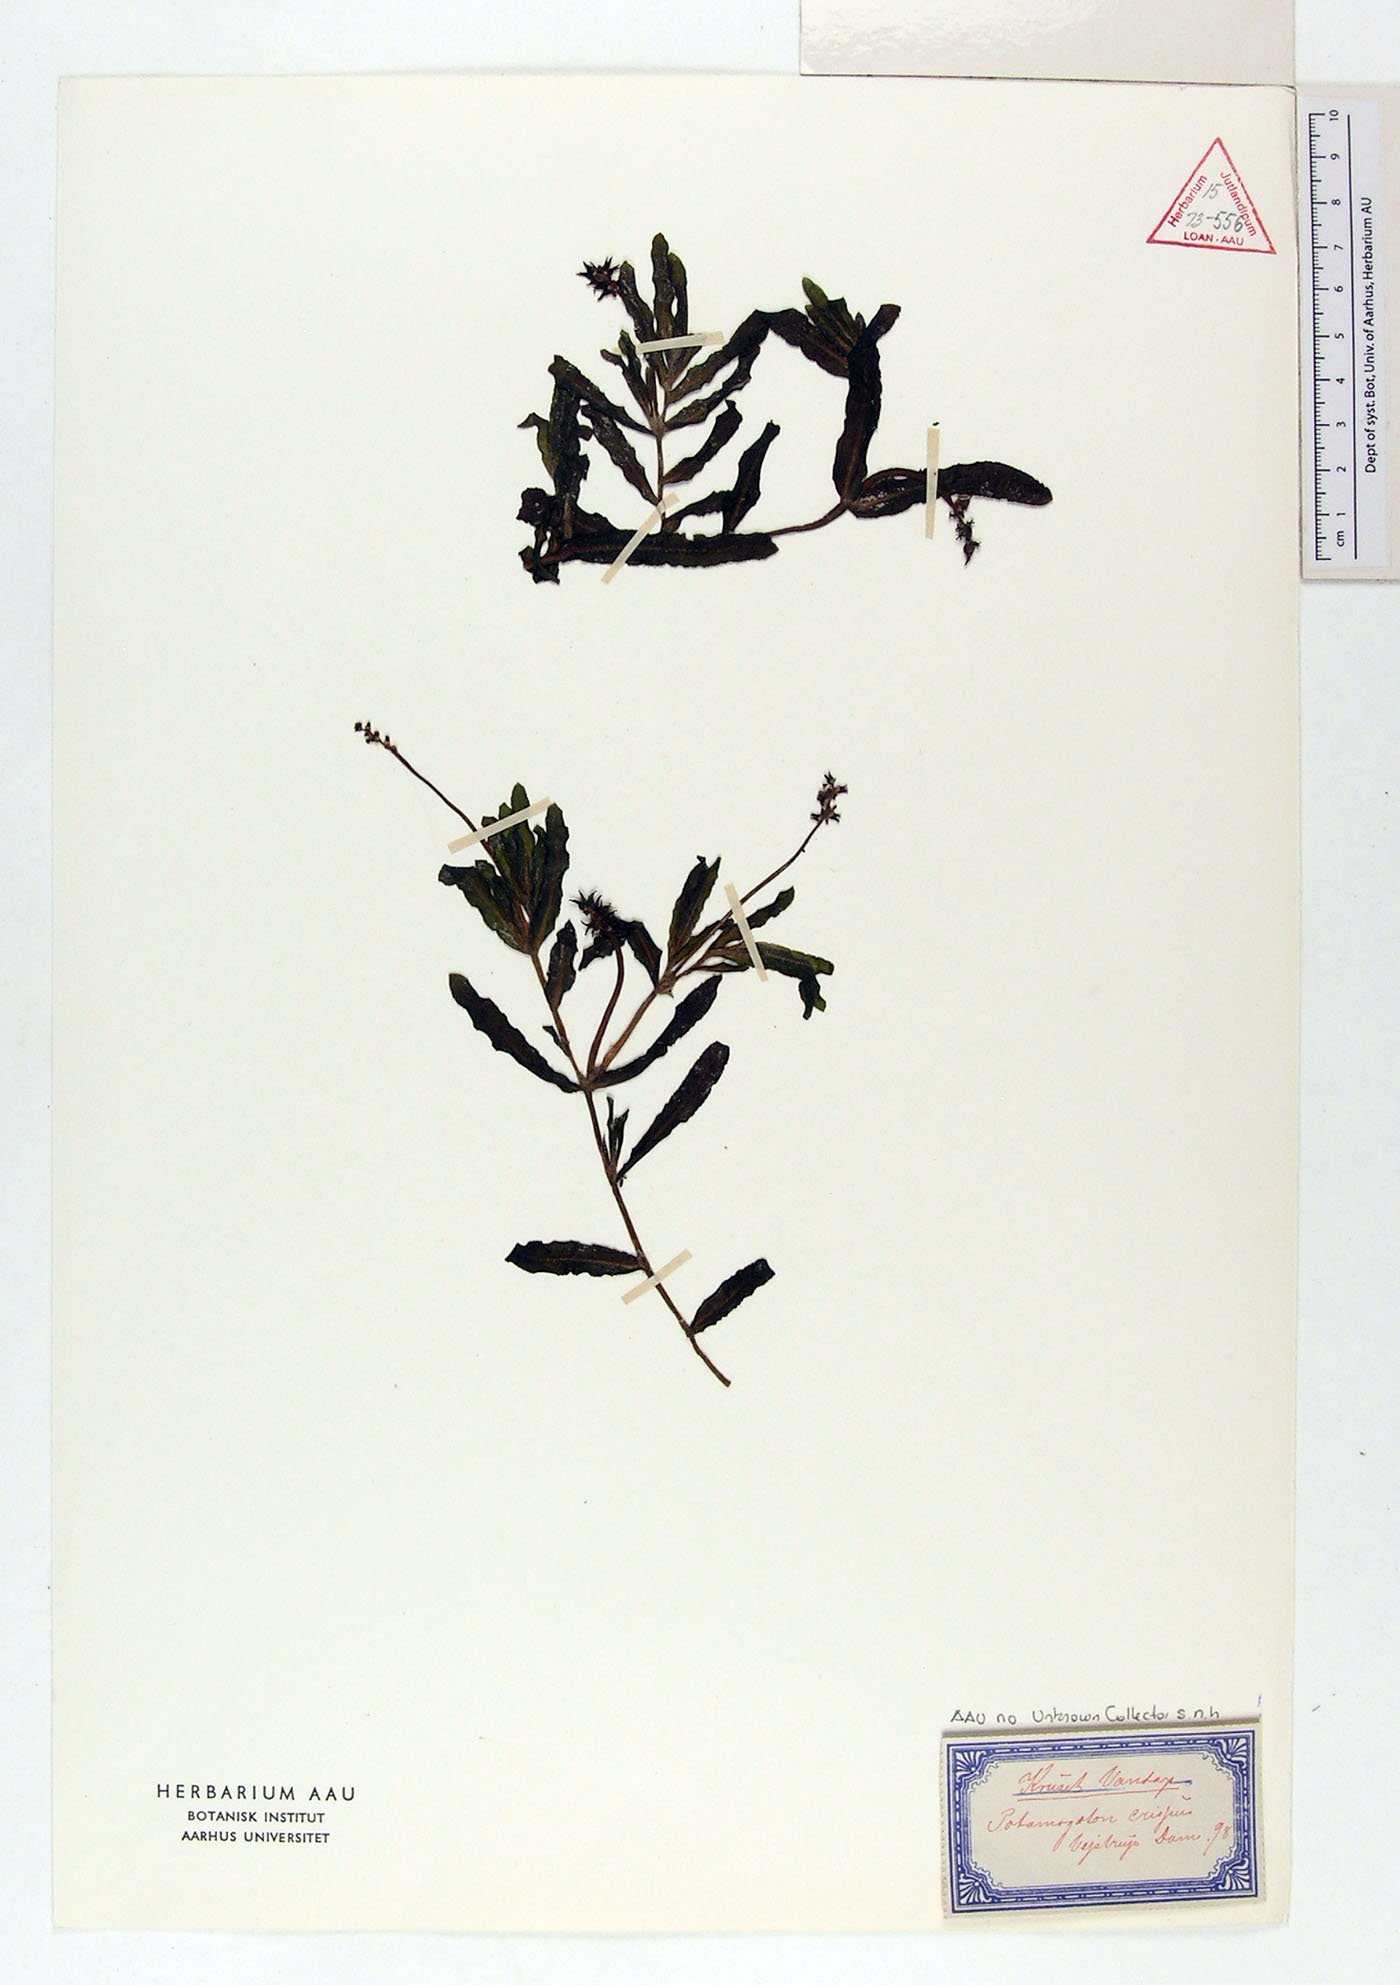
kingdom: Plantae
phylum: Tracheophyta
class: Liliopsida
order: Alismatales
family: Potamogetonaceae
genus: Potamogeton
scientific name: Potamogeton crispus
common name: Curled pondweed
